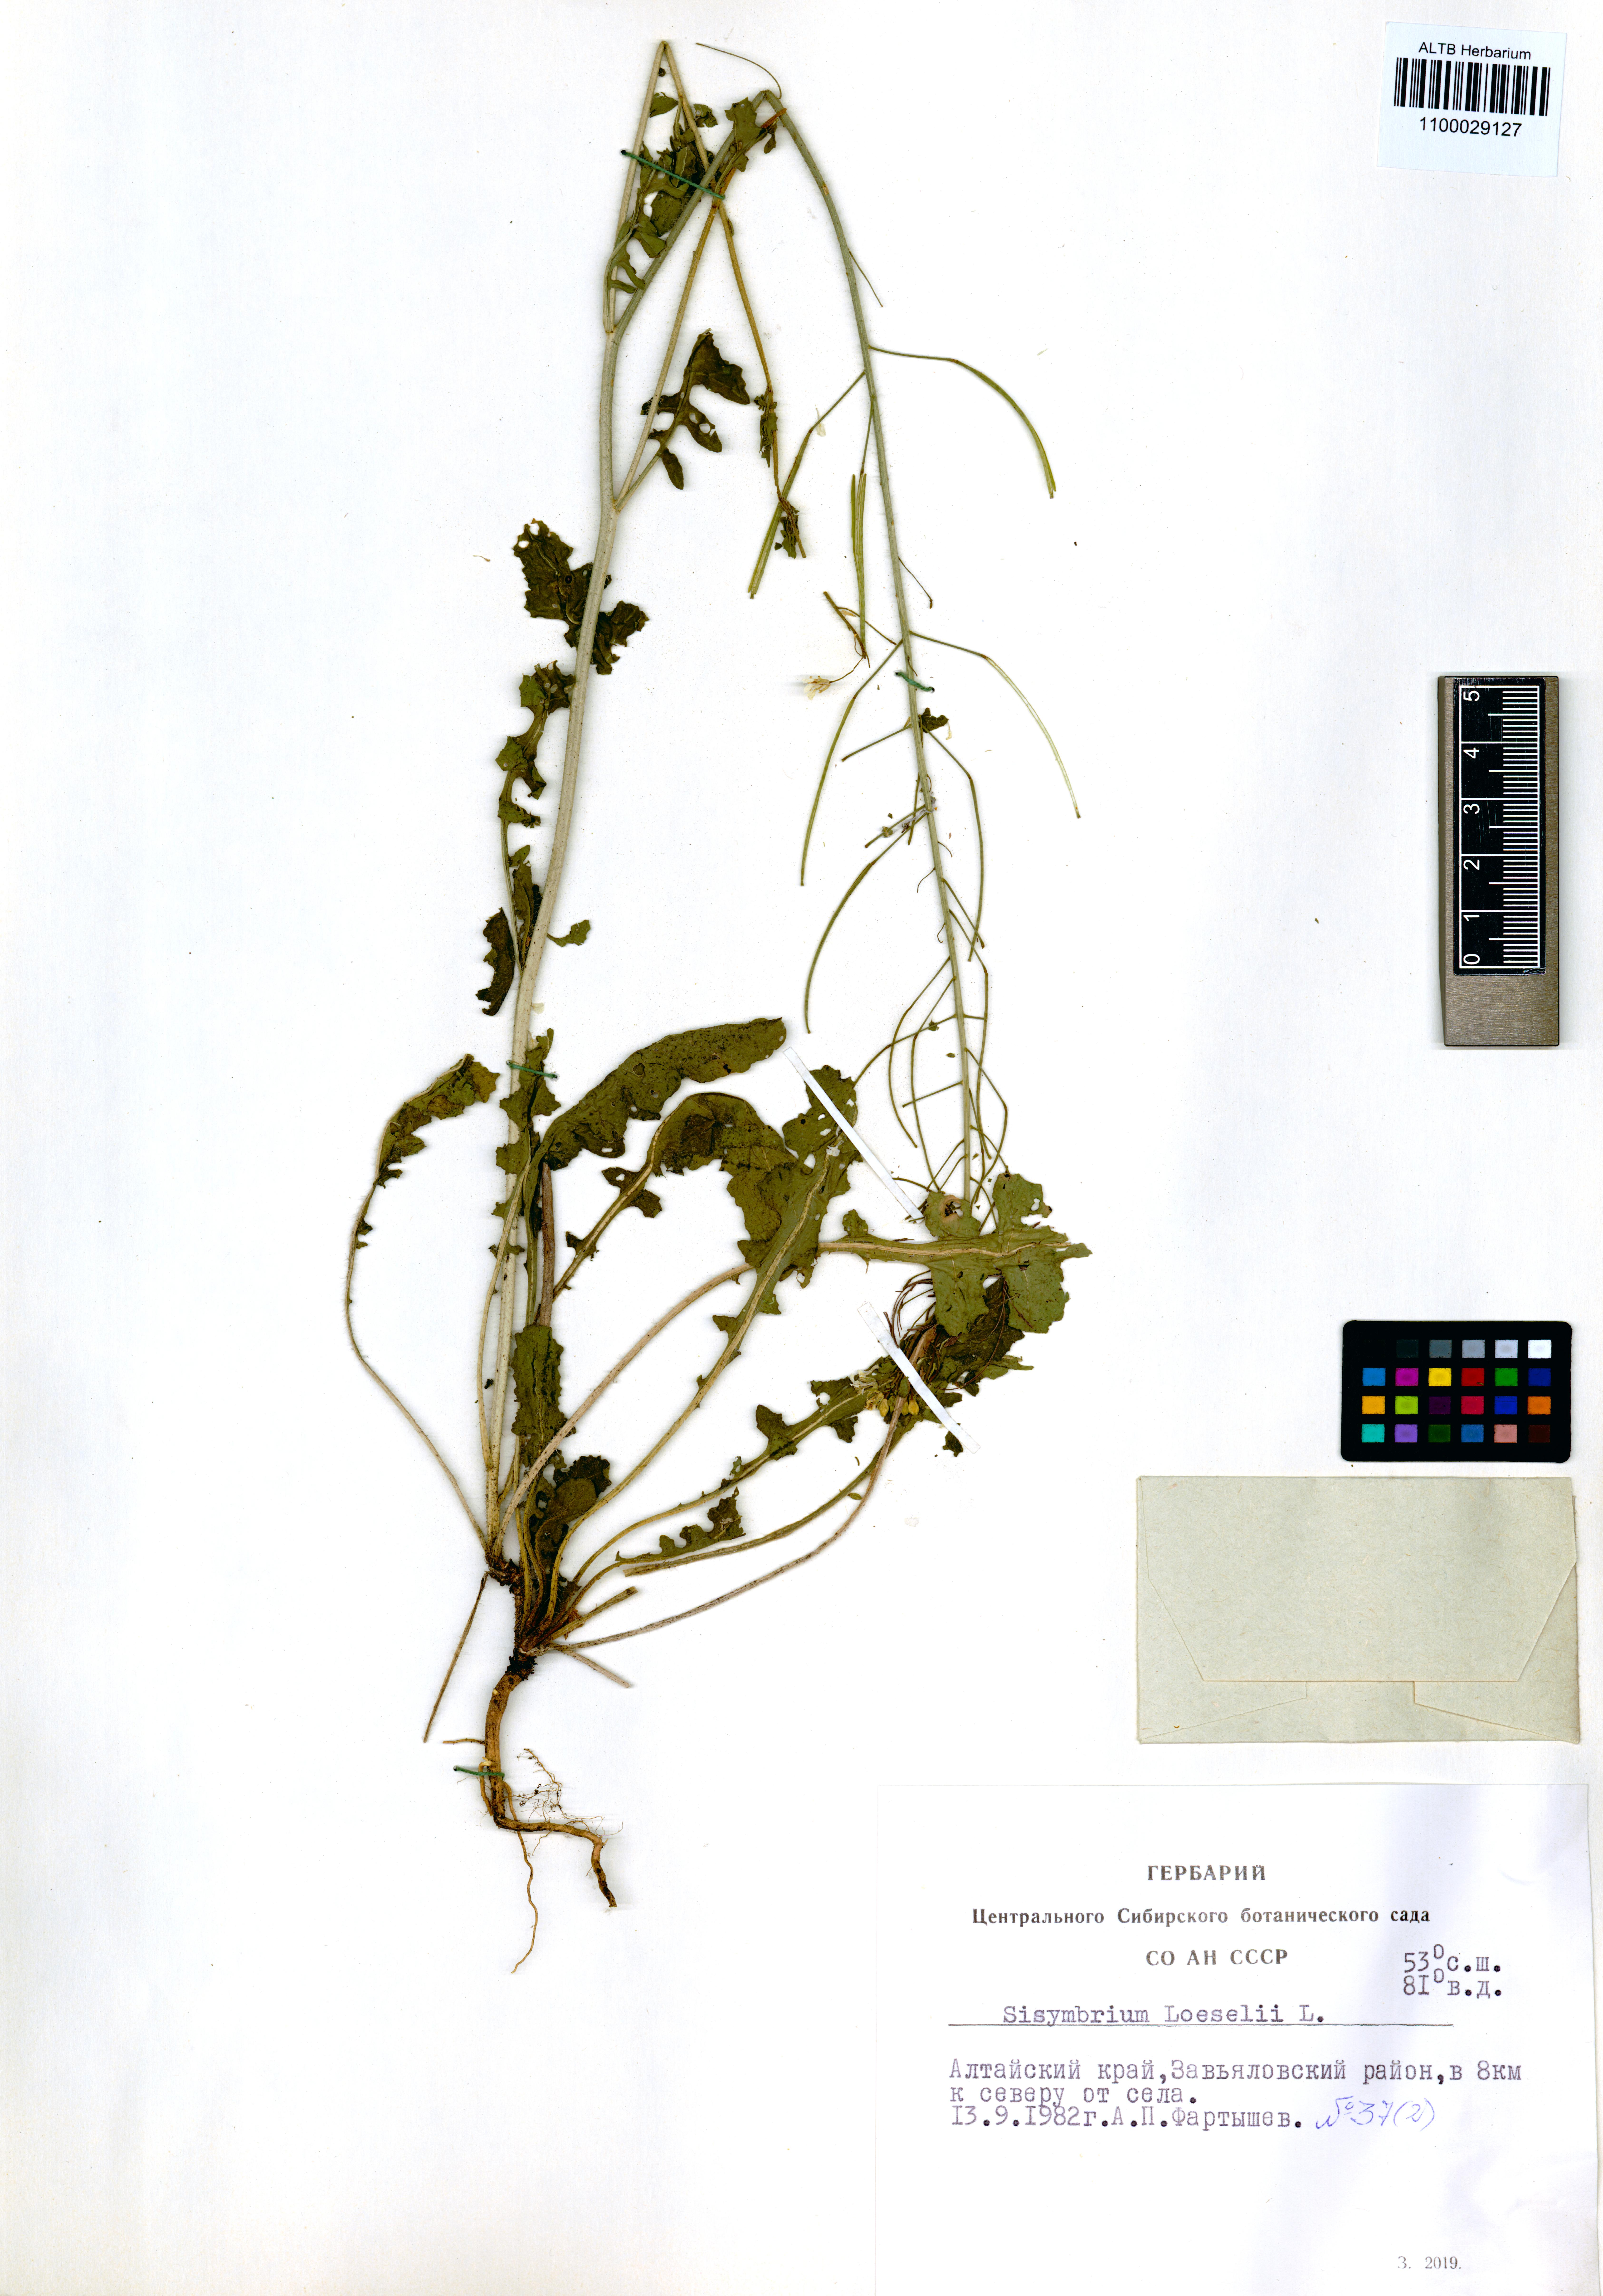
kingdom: Plantae
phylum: Tracheophyta
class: Magnoliopsida
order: Brassicales
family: Brassicaceae
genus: Sisymbrium
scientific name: Sisymbrium loeselii
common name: False london-rocket
